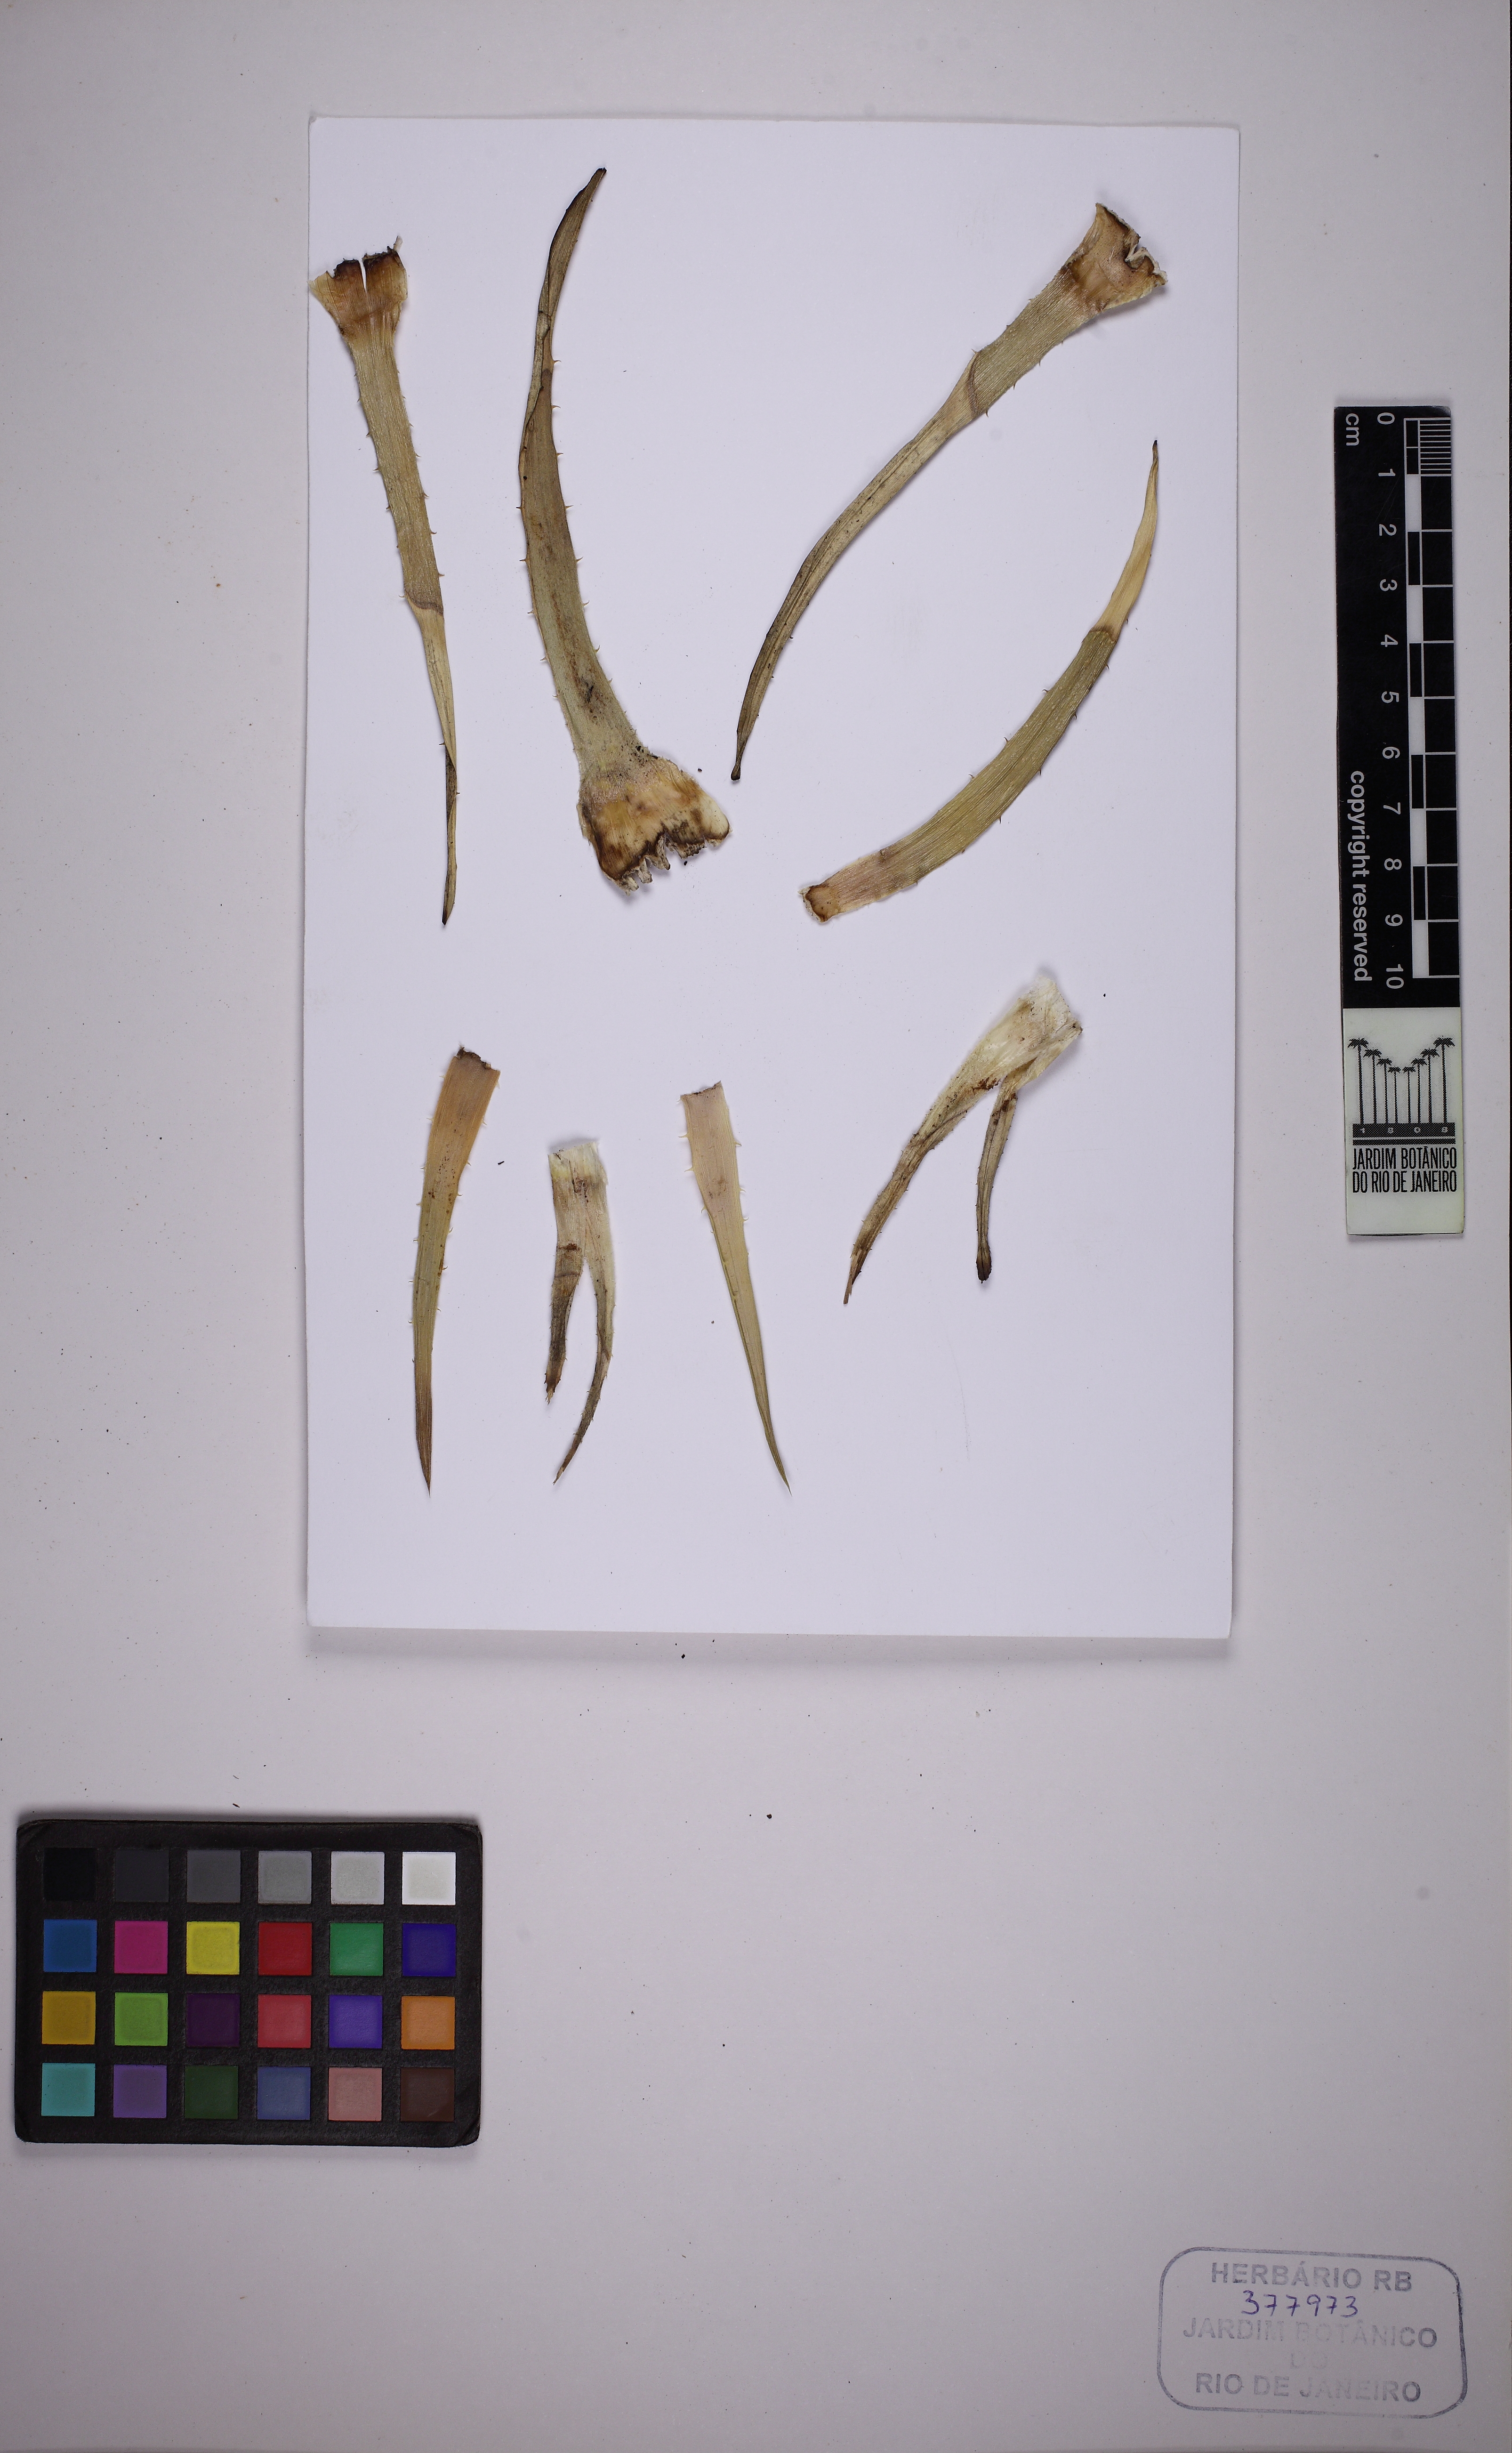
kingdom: Plantae
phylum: Tracheophyta
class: Liliopsida
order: Poales
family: Bromeliaceae
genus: Dyckia
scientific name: Dyckia minarum
